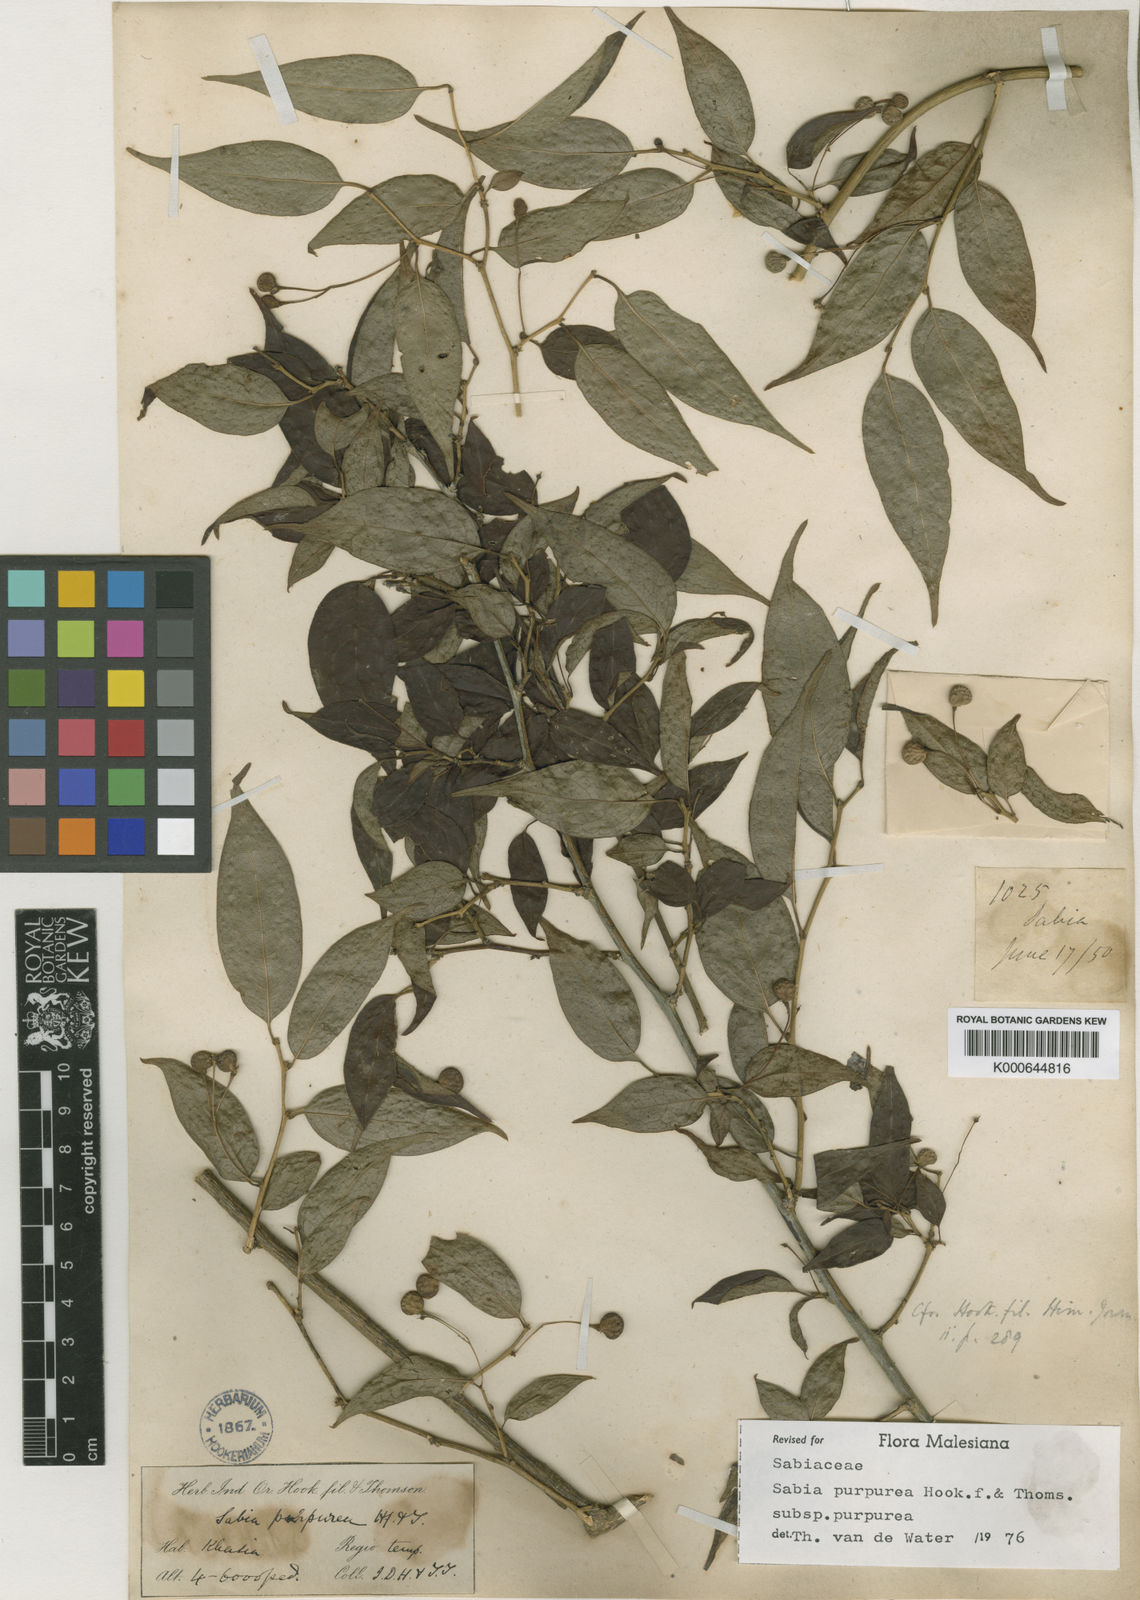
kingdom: Plantae
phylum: Tracheophyta
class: Magnoliopsida
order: Proteales
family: Sabiaceae
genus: Sabia
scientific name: Sabia purpurea
